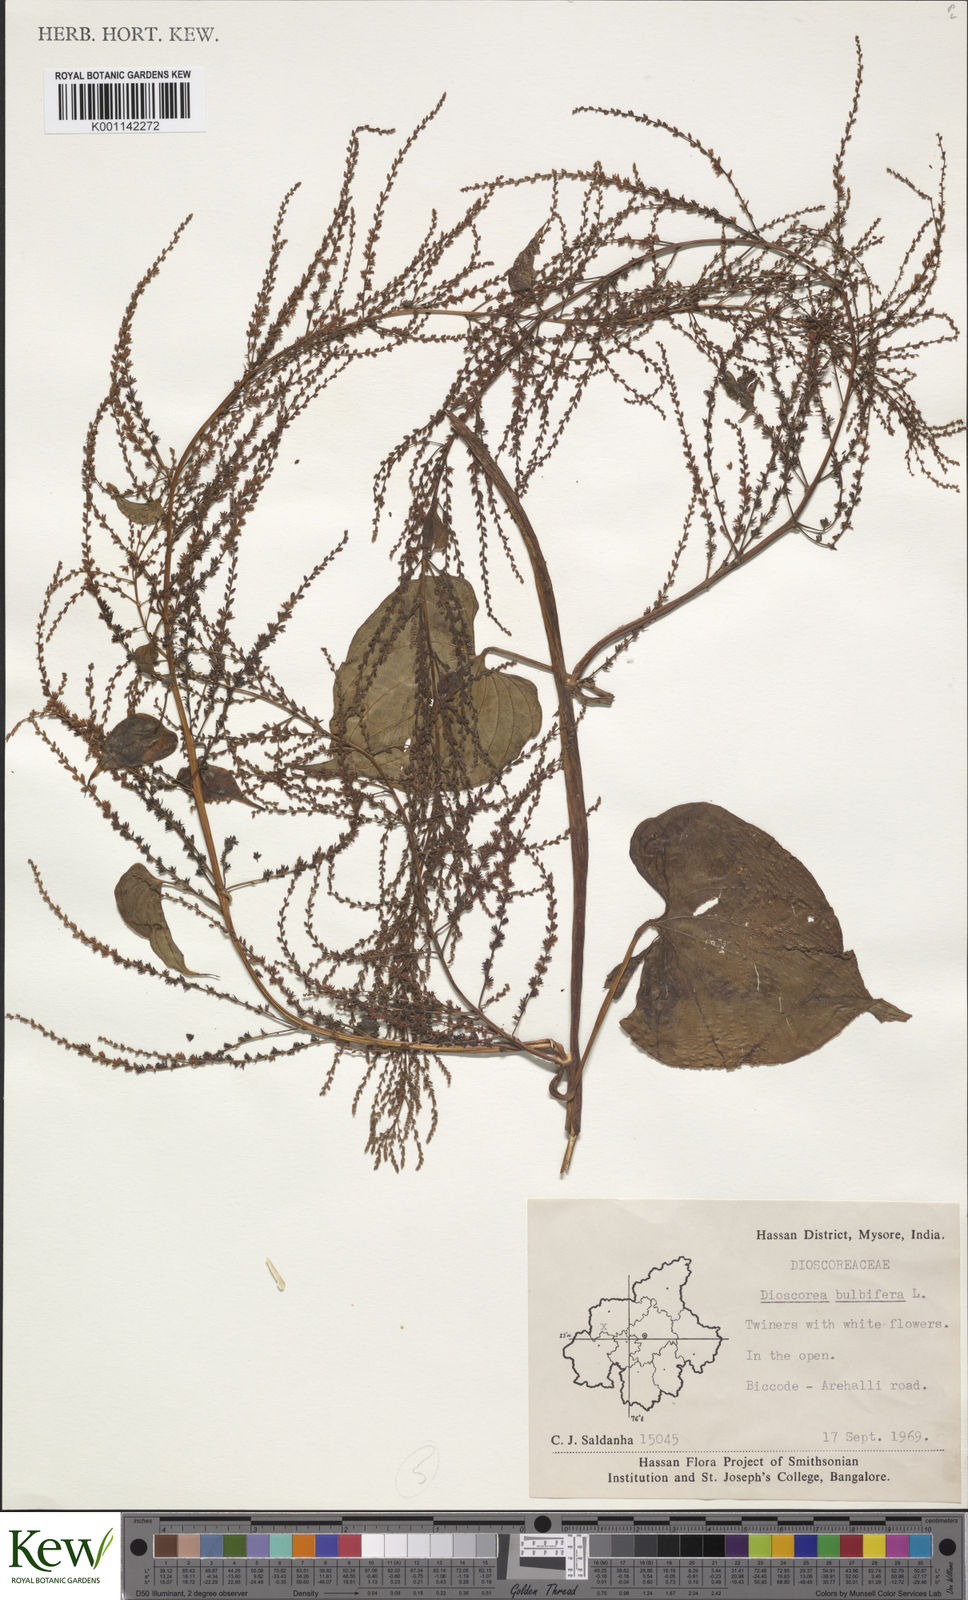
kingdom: Plantae
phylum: Tracheophyta
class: Liliopsida
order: Dioscoreales
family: Dioscoreaceae
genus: Dioscorea
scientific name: Dioscorea bulbifera
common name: Air yam
